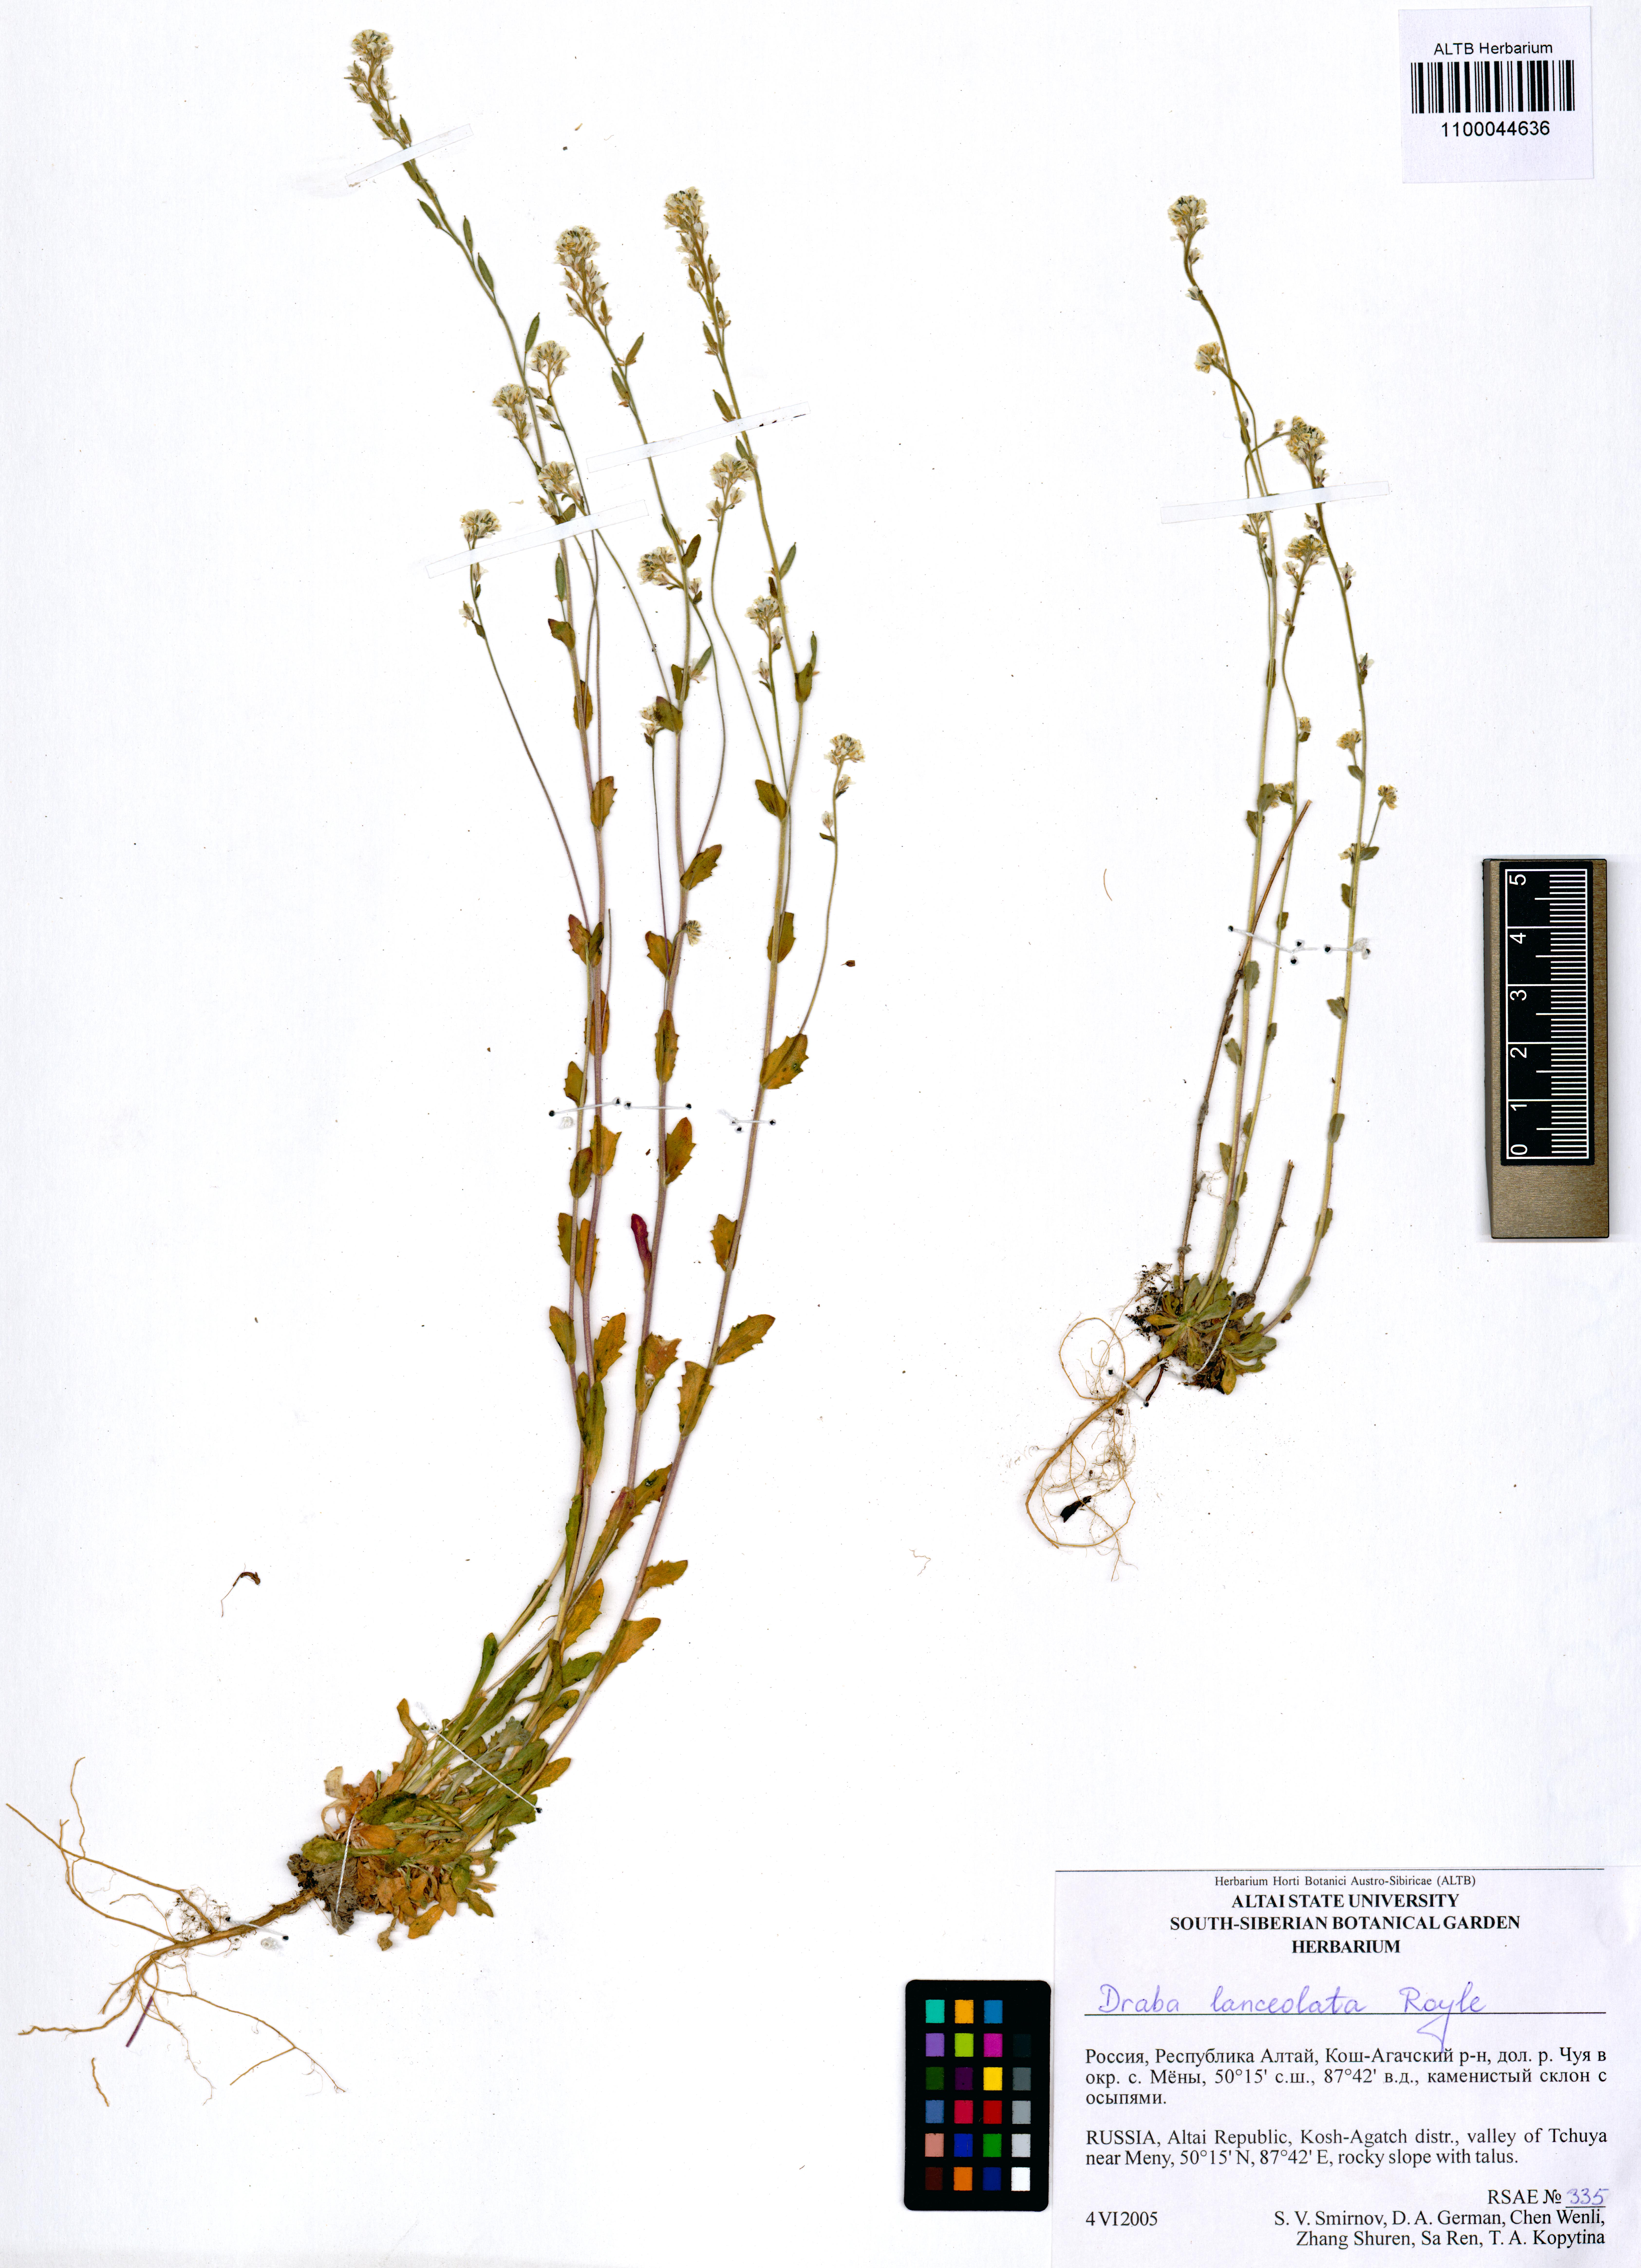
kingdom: Plantae
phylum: Tracheophyta
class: Magnoliopsida
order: Brassicales
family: Brassicaceae
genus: Draba
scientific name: Draba lanceolata
